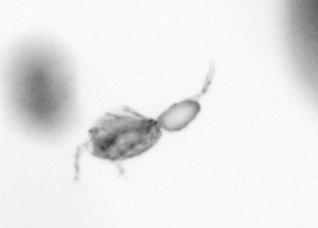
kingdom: Animalia
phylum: Arthropoda
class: Copepoda
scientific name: Copepoda
